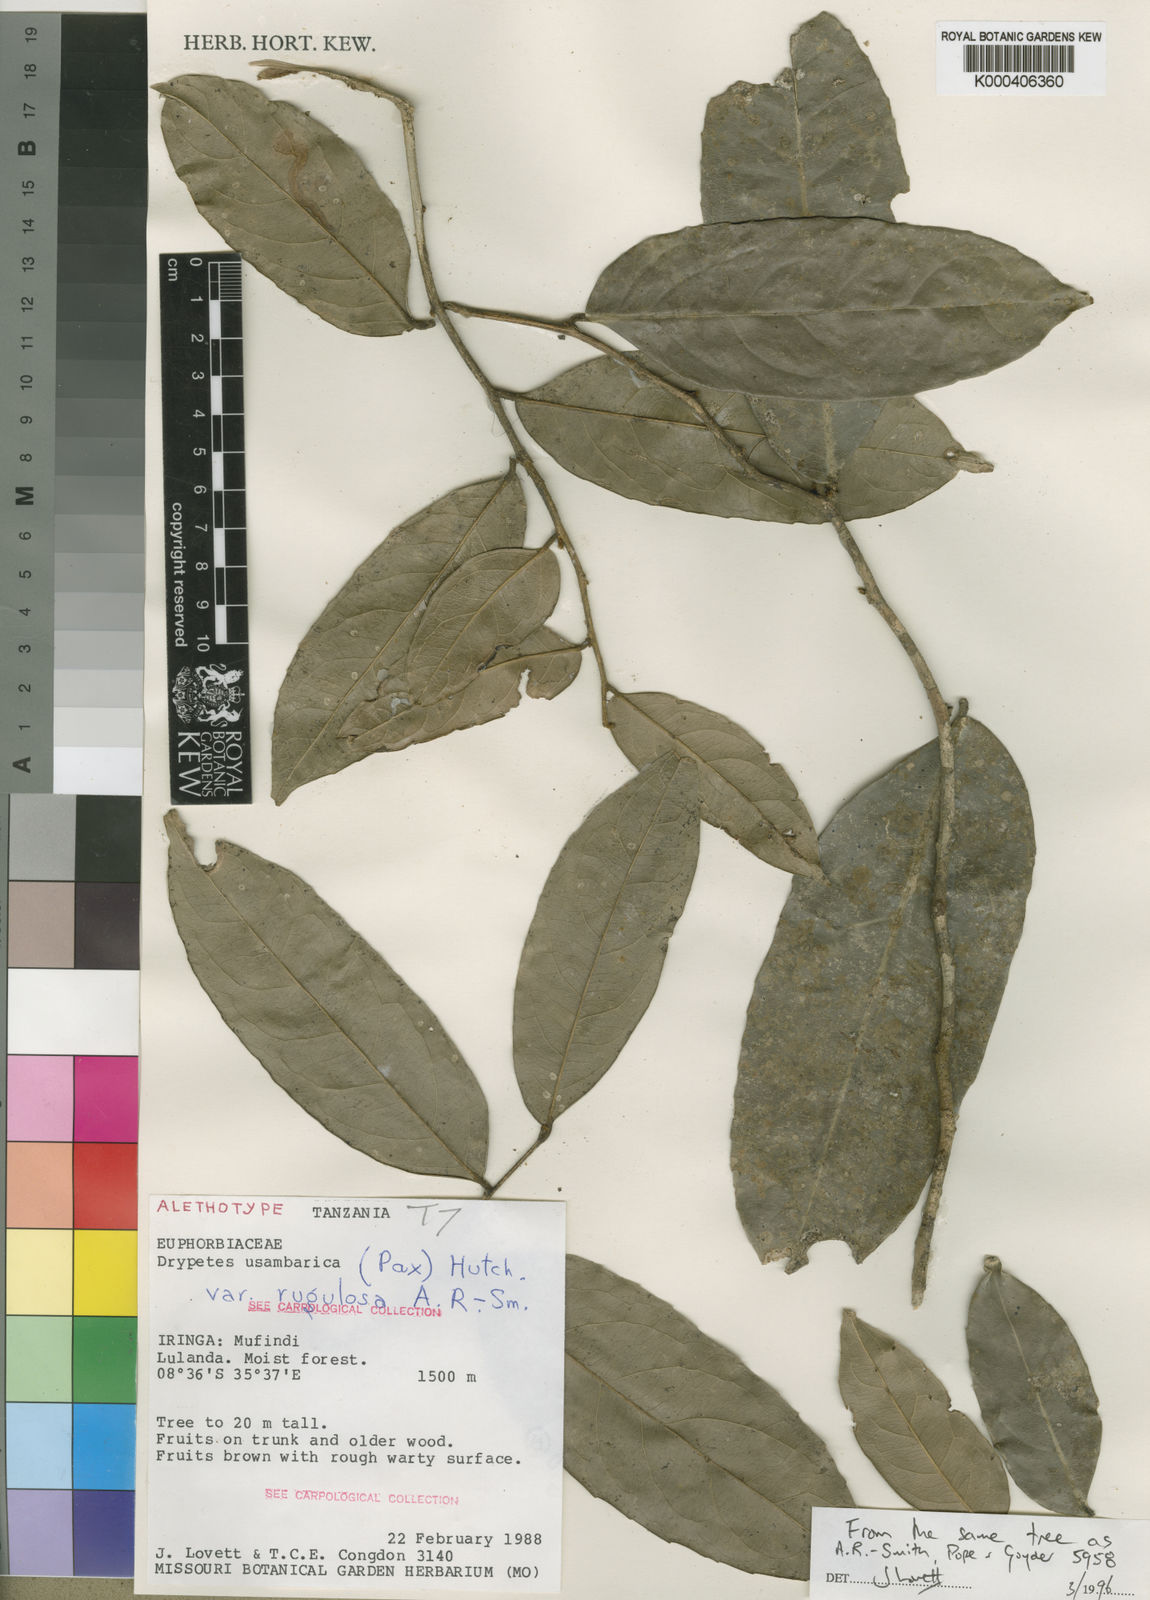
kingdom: Plantae
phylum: Tracheophyta
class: Magnoliopsida
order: Malpighiales
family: Putranjivaceae
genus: Drypetes
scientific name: Drypetes usambarica
